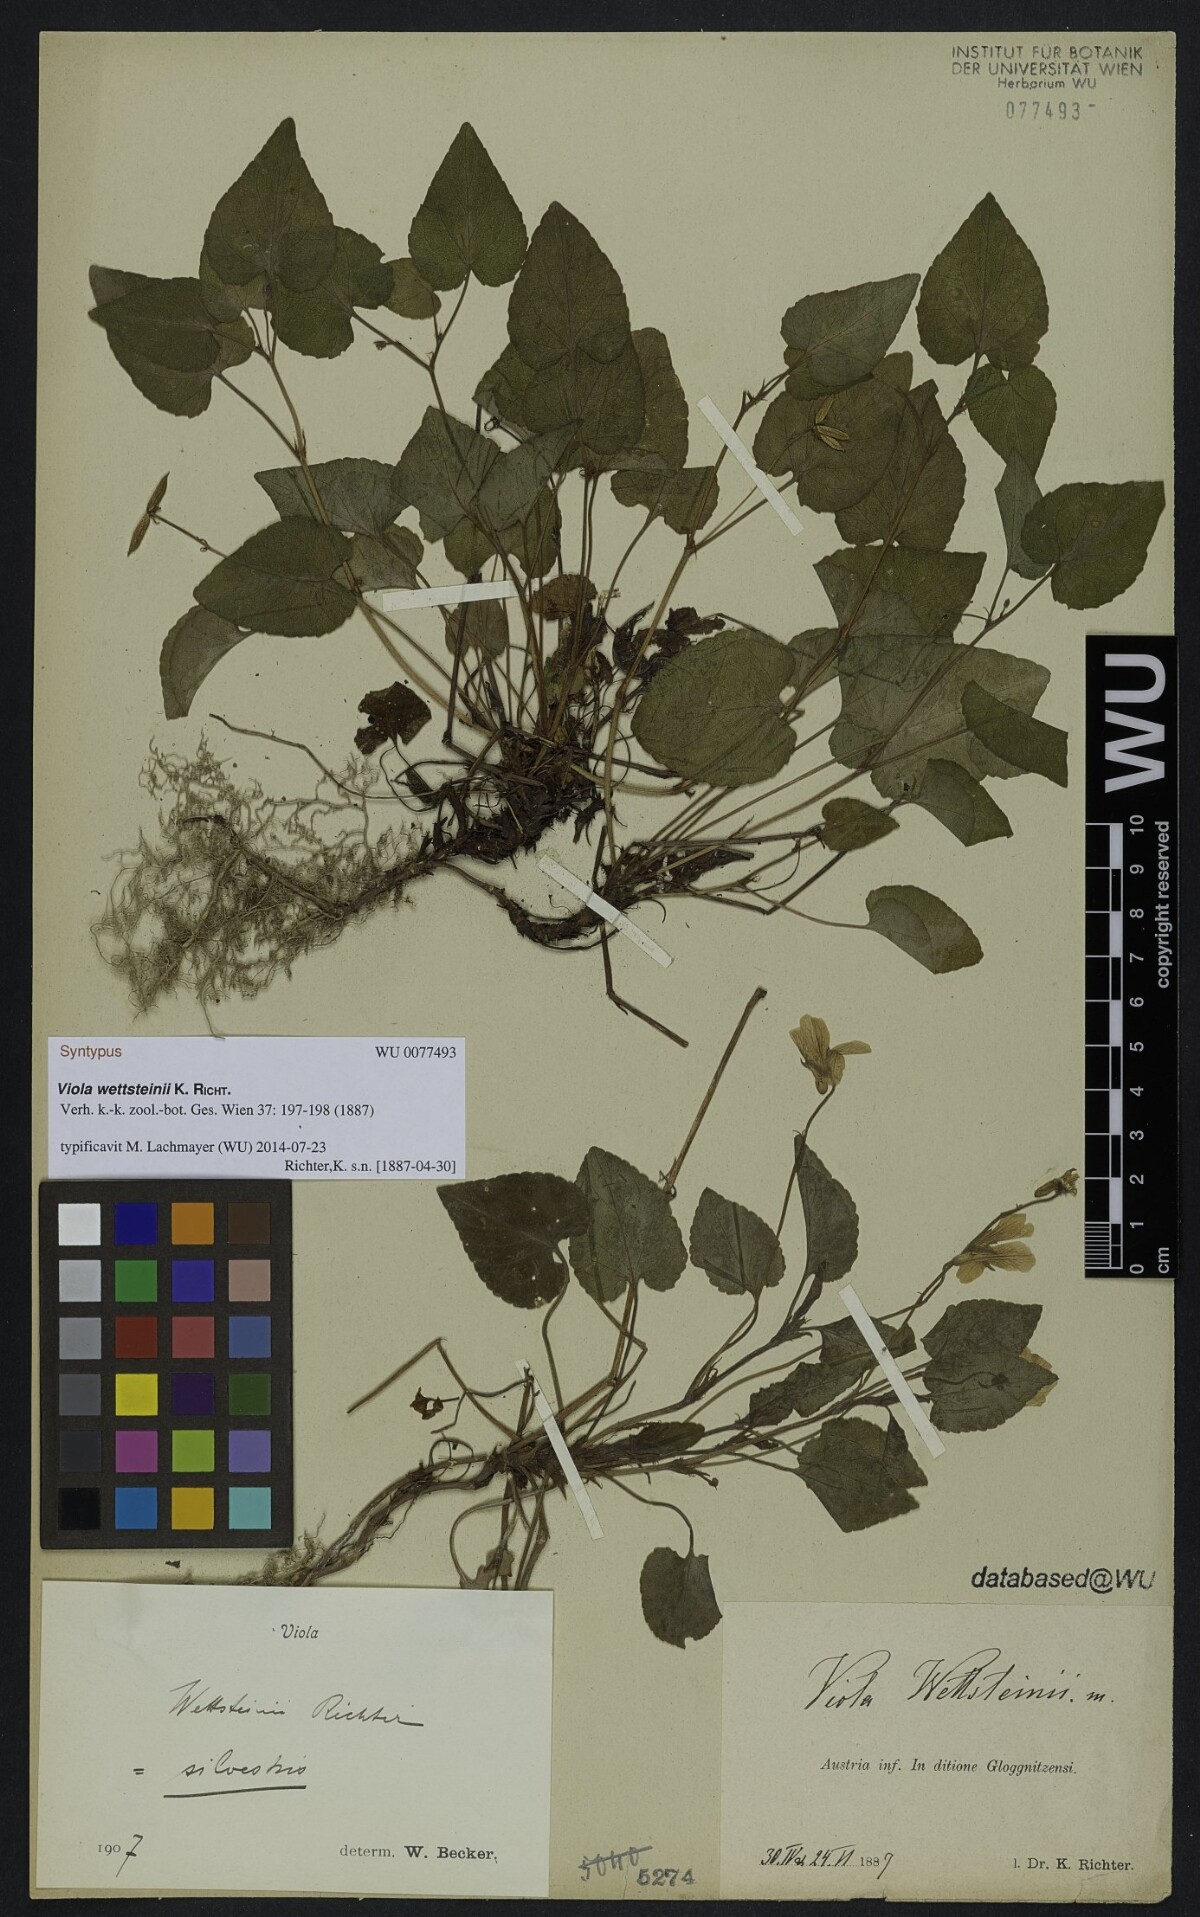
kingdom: Plantae
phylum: Tracheophyta
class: Magnoliopsida
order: Malpighiales
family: Violaceae
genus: Viola
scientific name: Viola bavarica
